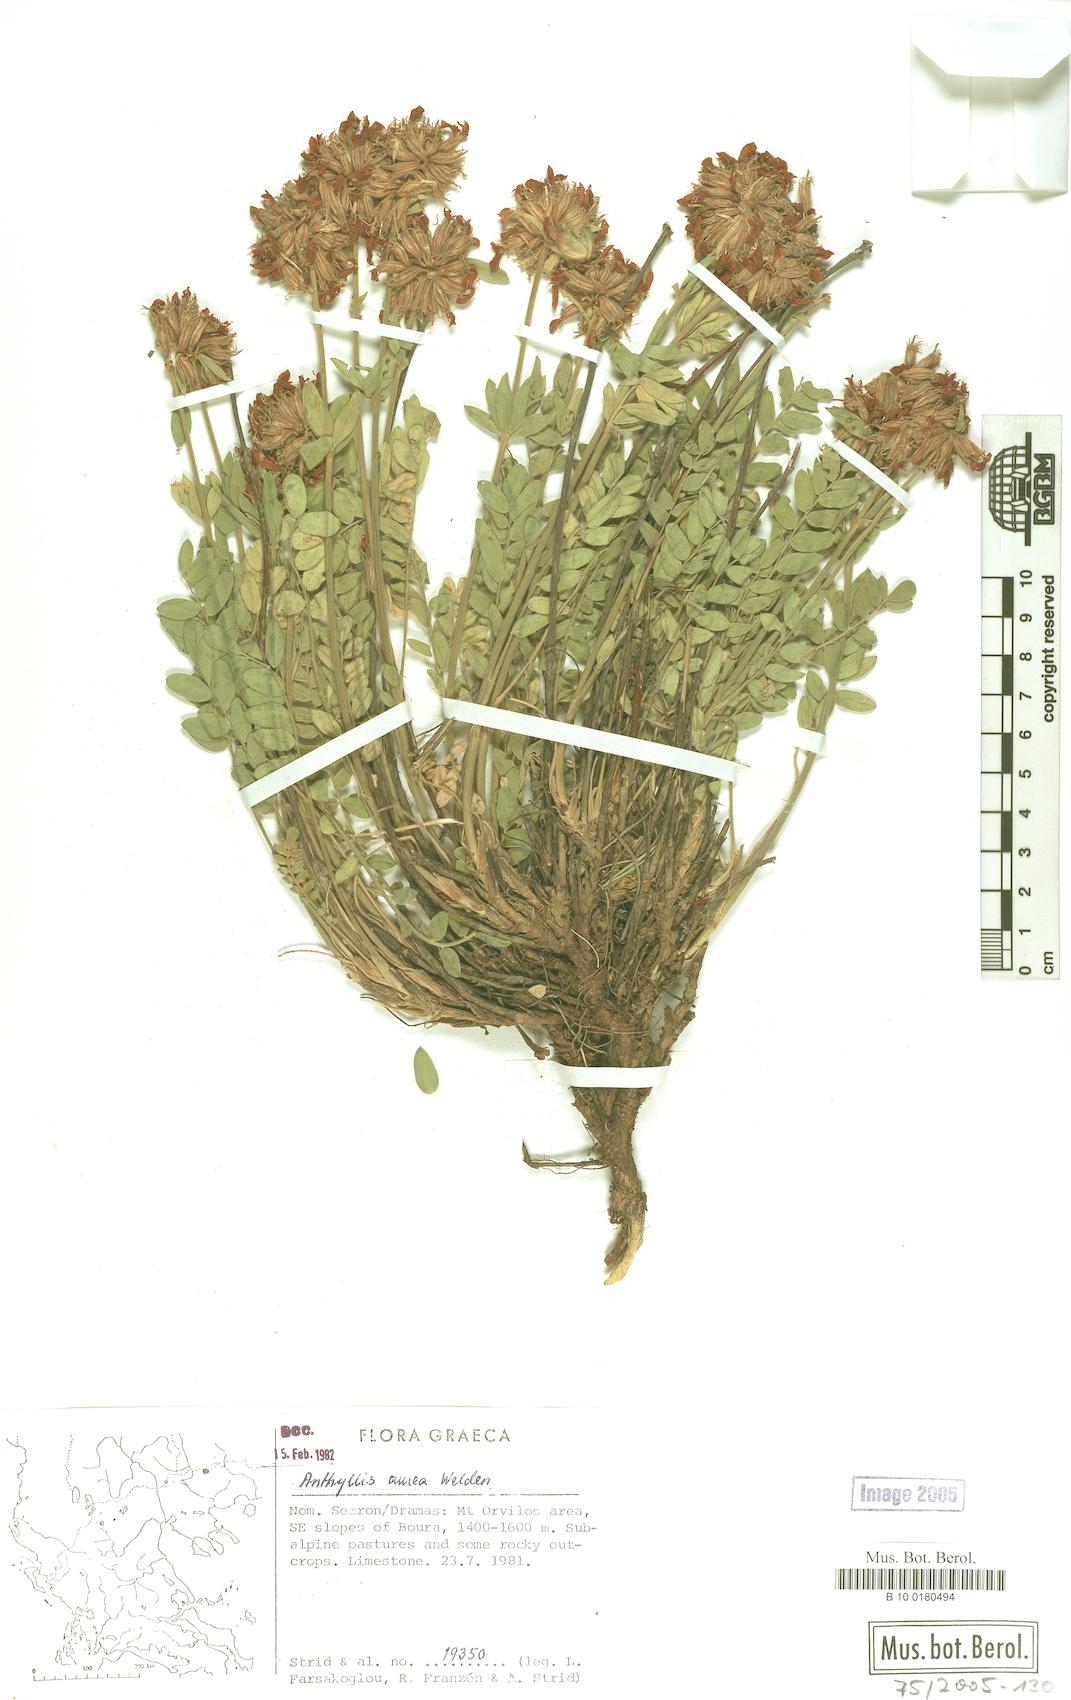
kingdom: Plantae
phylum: Tracheophyta
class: Magnoliopsida
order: Fabales
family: Fabaceae
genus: Anthyllis
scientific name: Anthyllis aurea
